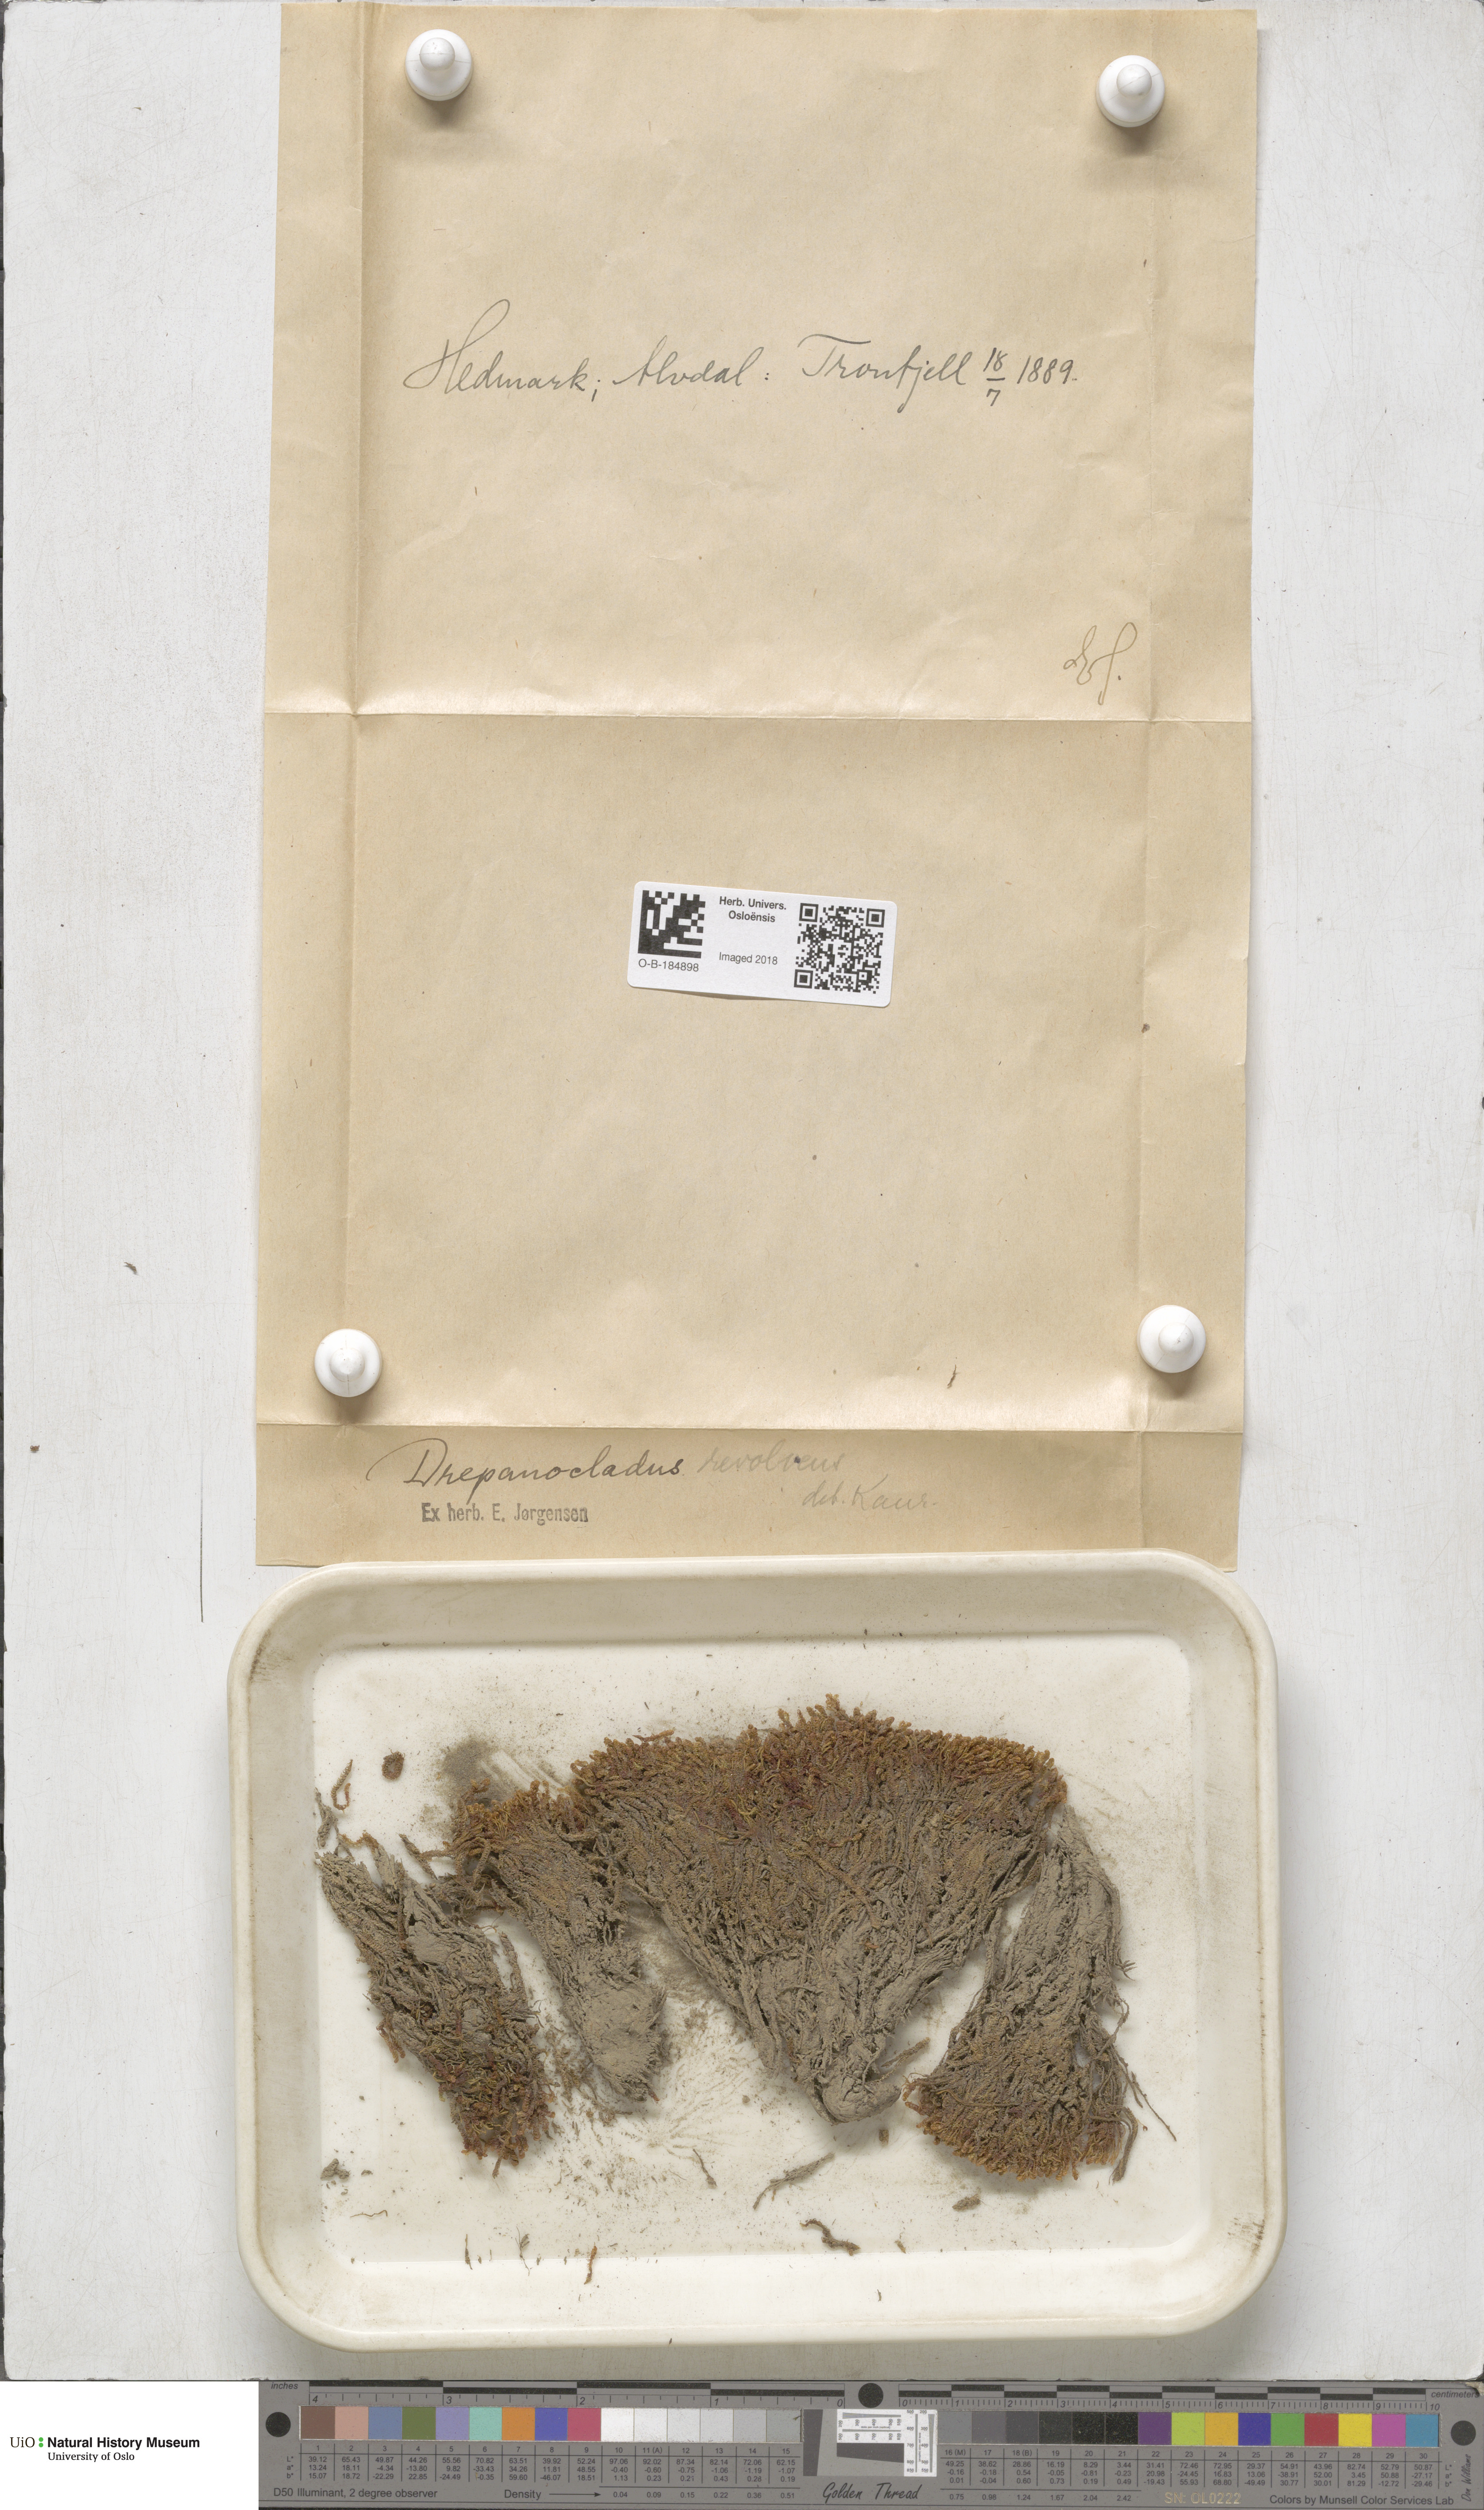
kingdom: Plantae
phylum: Bryophyta
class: Bryopsida
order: Hypnales
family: Scorpidiaceae
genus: Scorpidium
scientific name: Scorpidium revolvens
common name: Rusty hook moss
